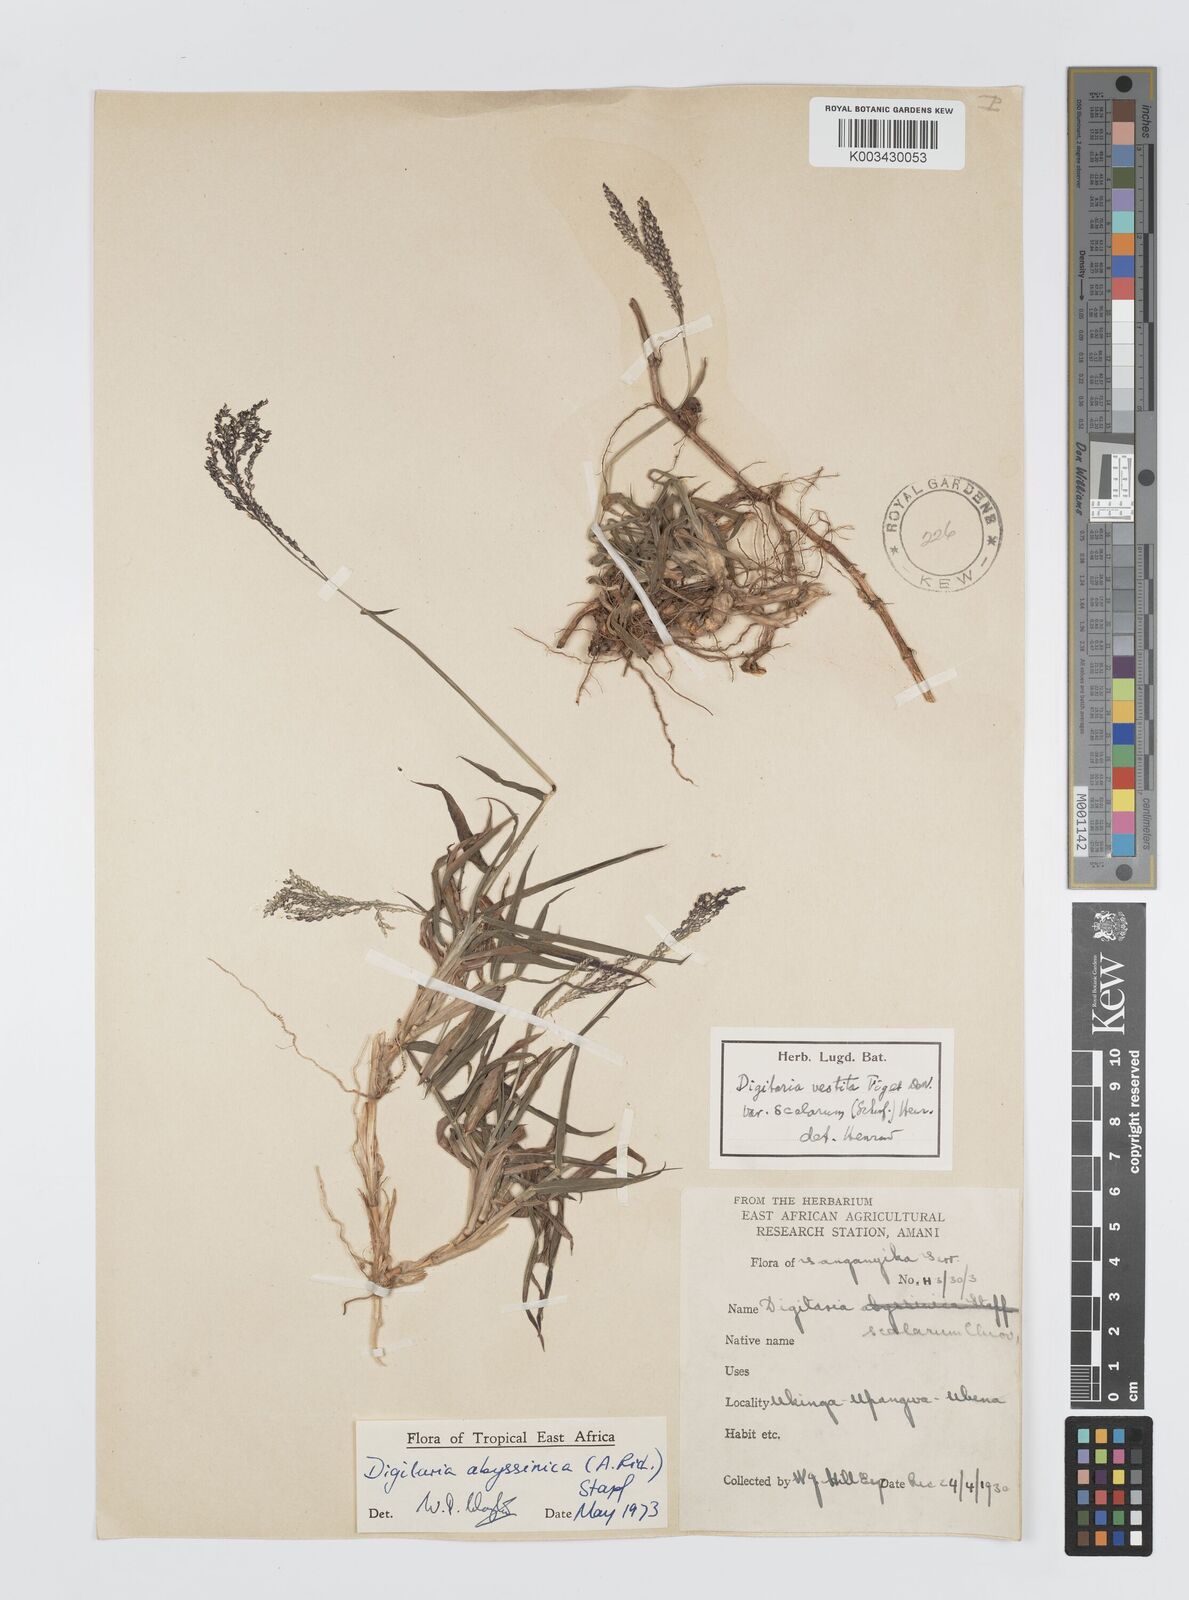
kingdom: Plantae
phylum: Tracheophyta
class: Liliopsida
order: Poales
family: Poaceae
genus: Digitaria
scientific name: Digitaria abyssinica
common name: African couchgrass
